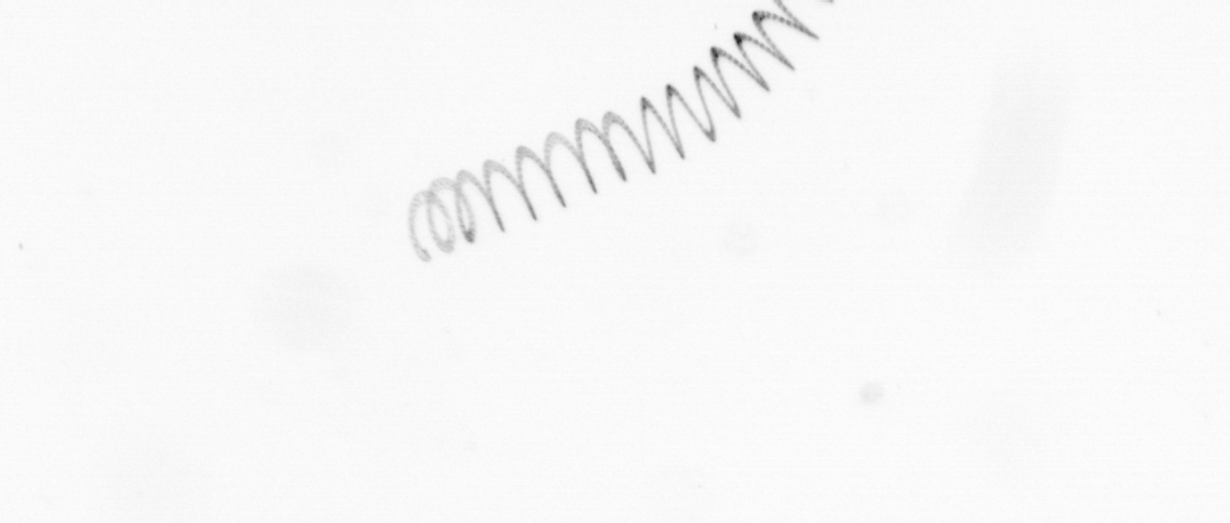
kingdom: Chromista
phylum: Ochrophyta
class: Bacillariophyceae
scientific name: Bacillariophyceae
